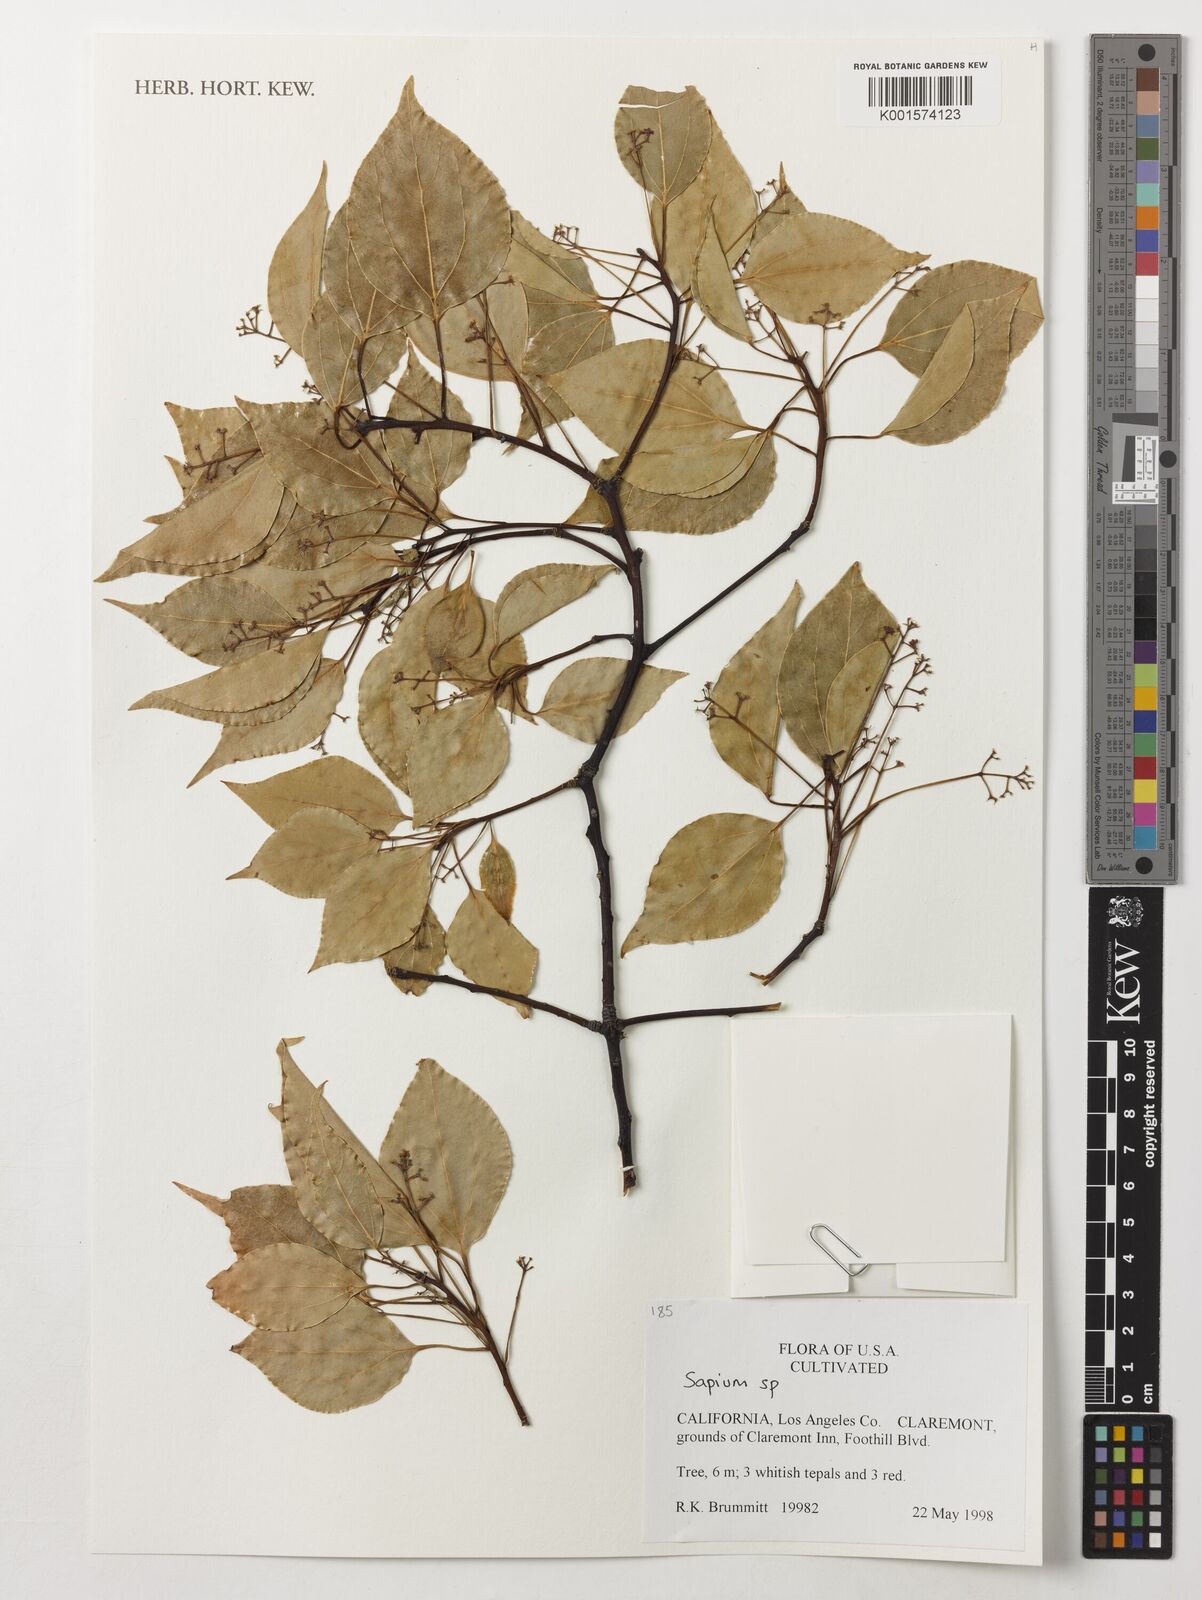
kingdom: Plantae
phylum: Tracheophyta
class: Magnoliopsida
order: Malpighiales
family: Euphorbiaceae
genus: Sapium
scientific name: Sapium
